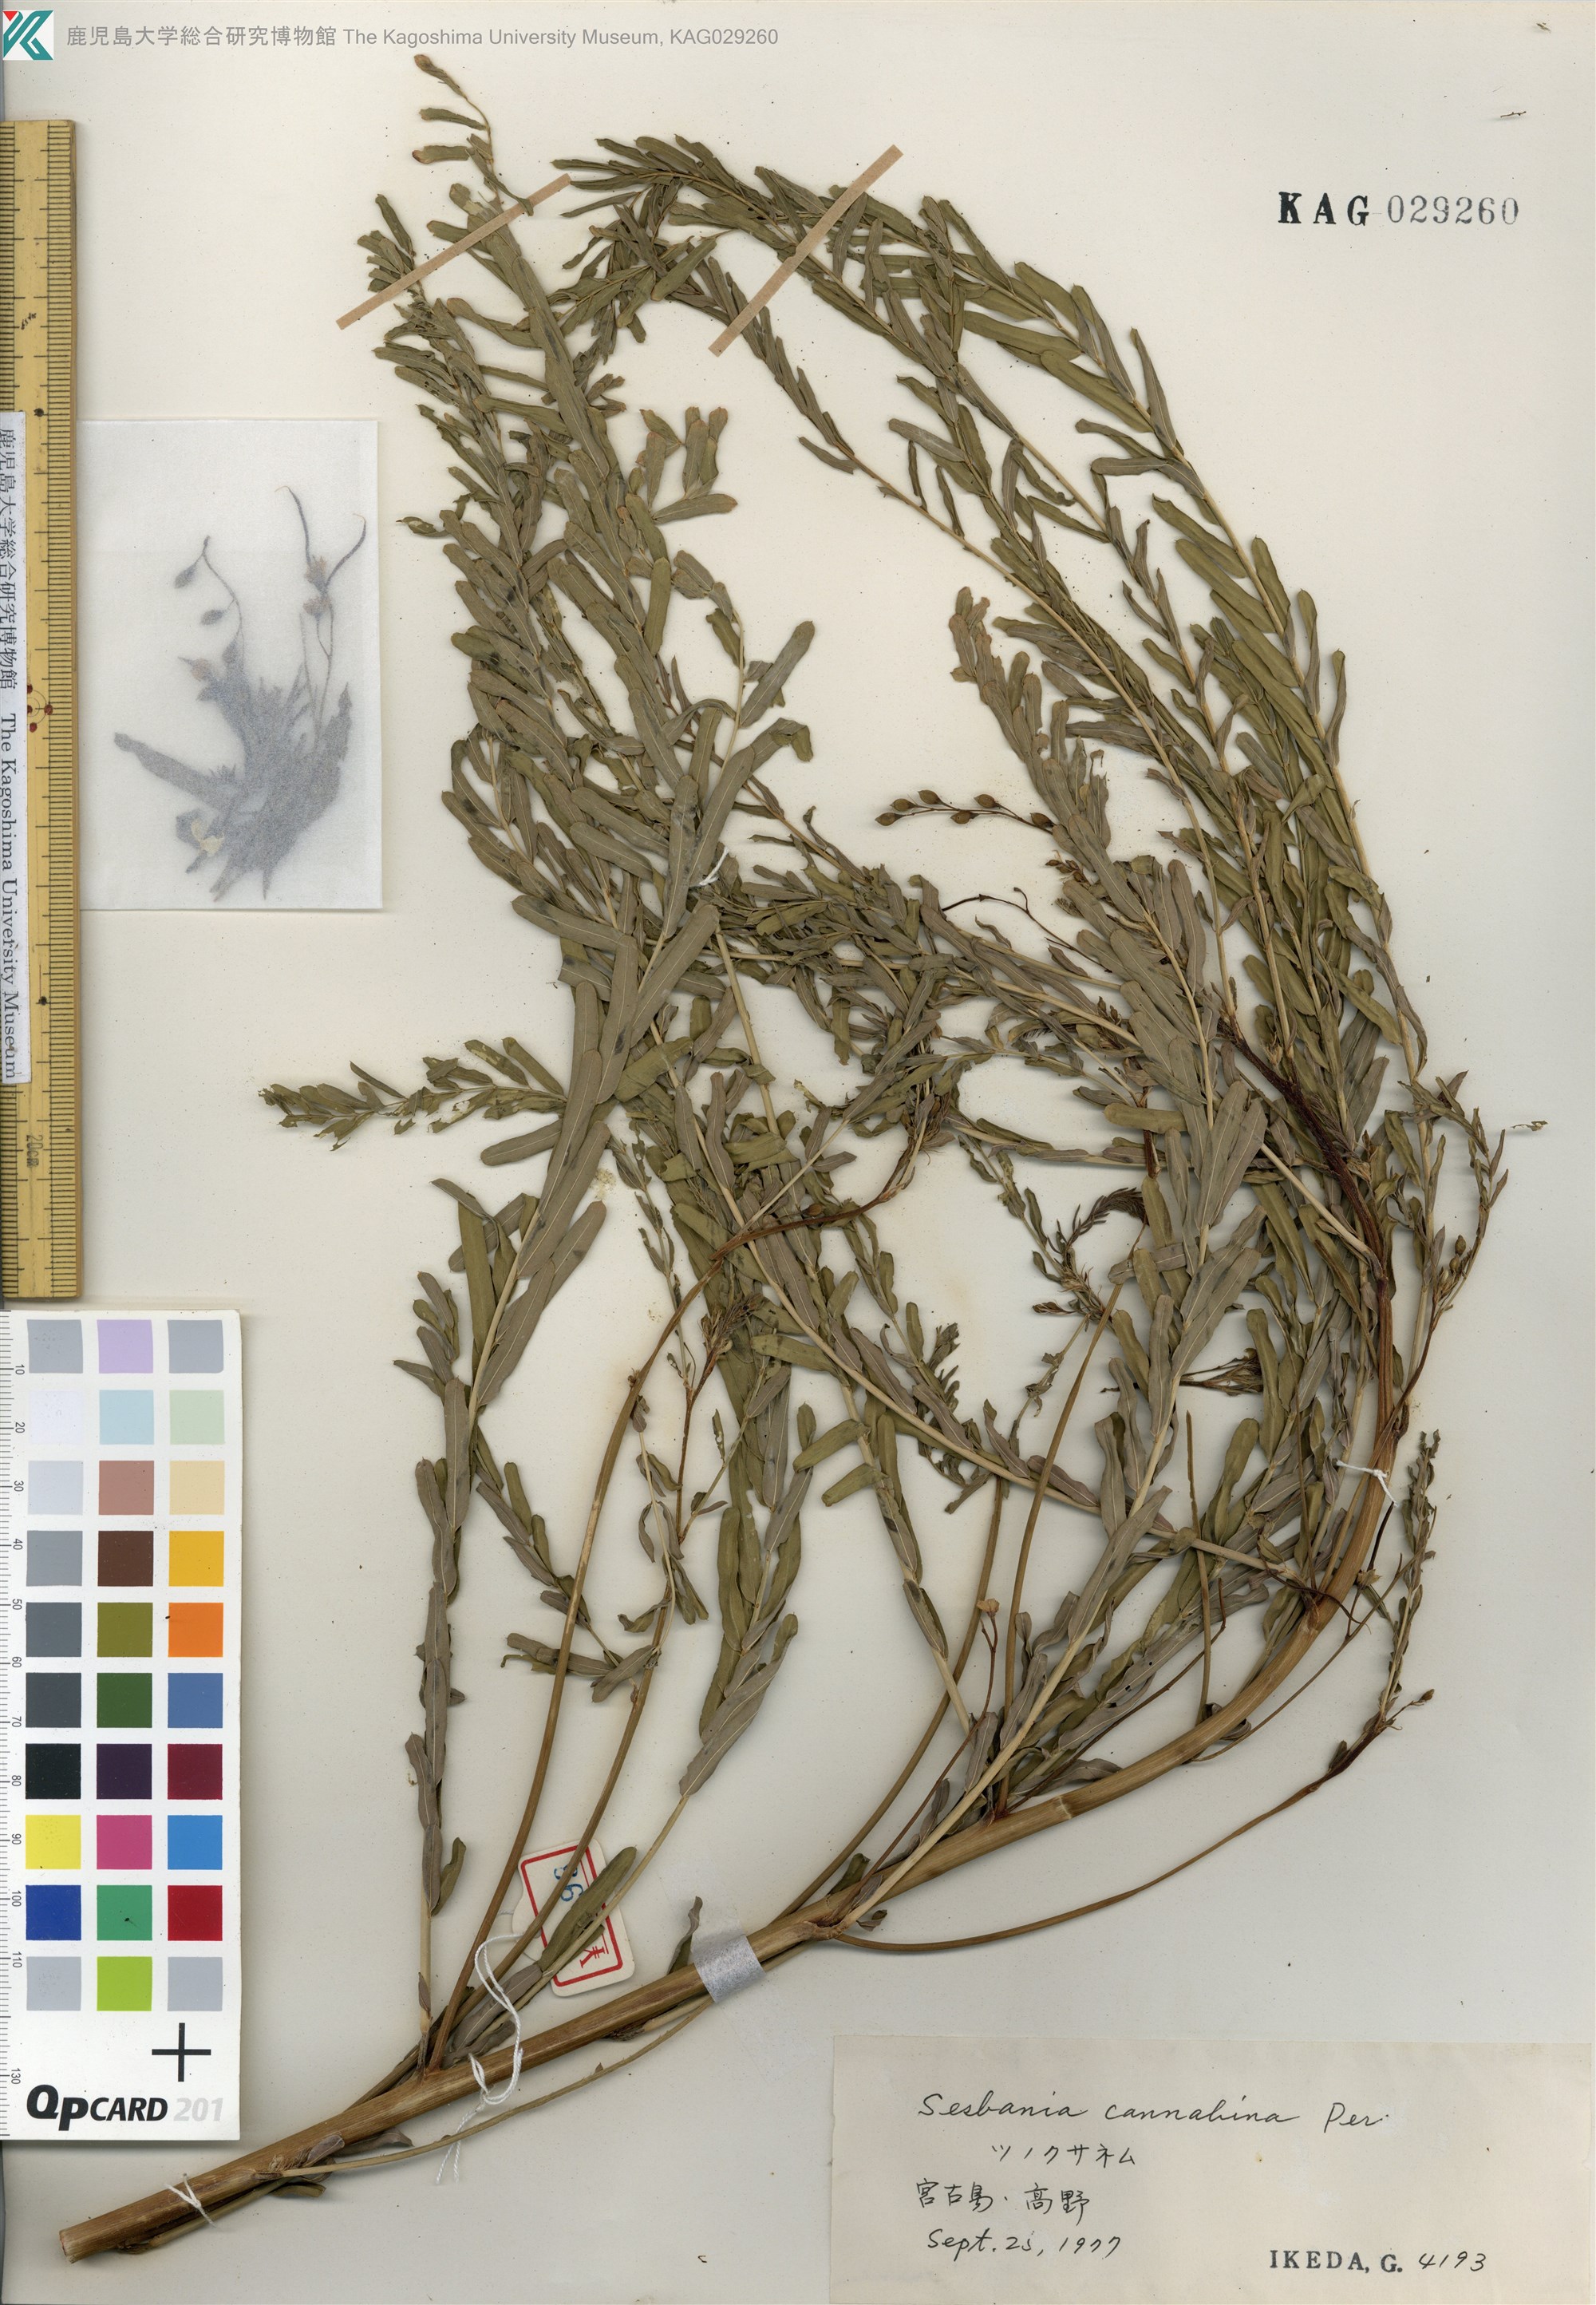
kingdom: Plantae
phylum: Tracheophyta
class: Magnoliopsida
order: Fabales
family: Fabaceae
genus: Sesbania
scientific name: Sesbania cannabina
